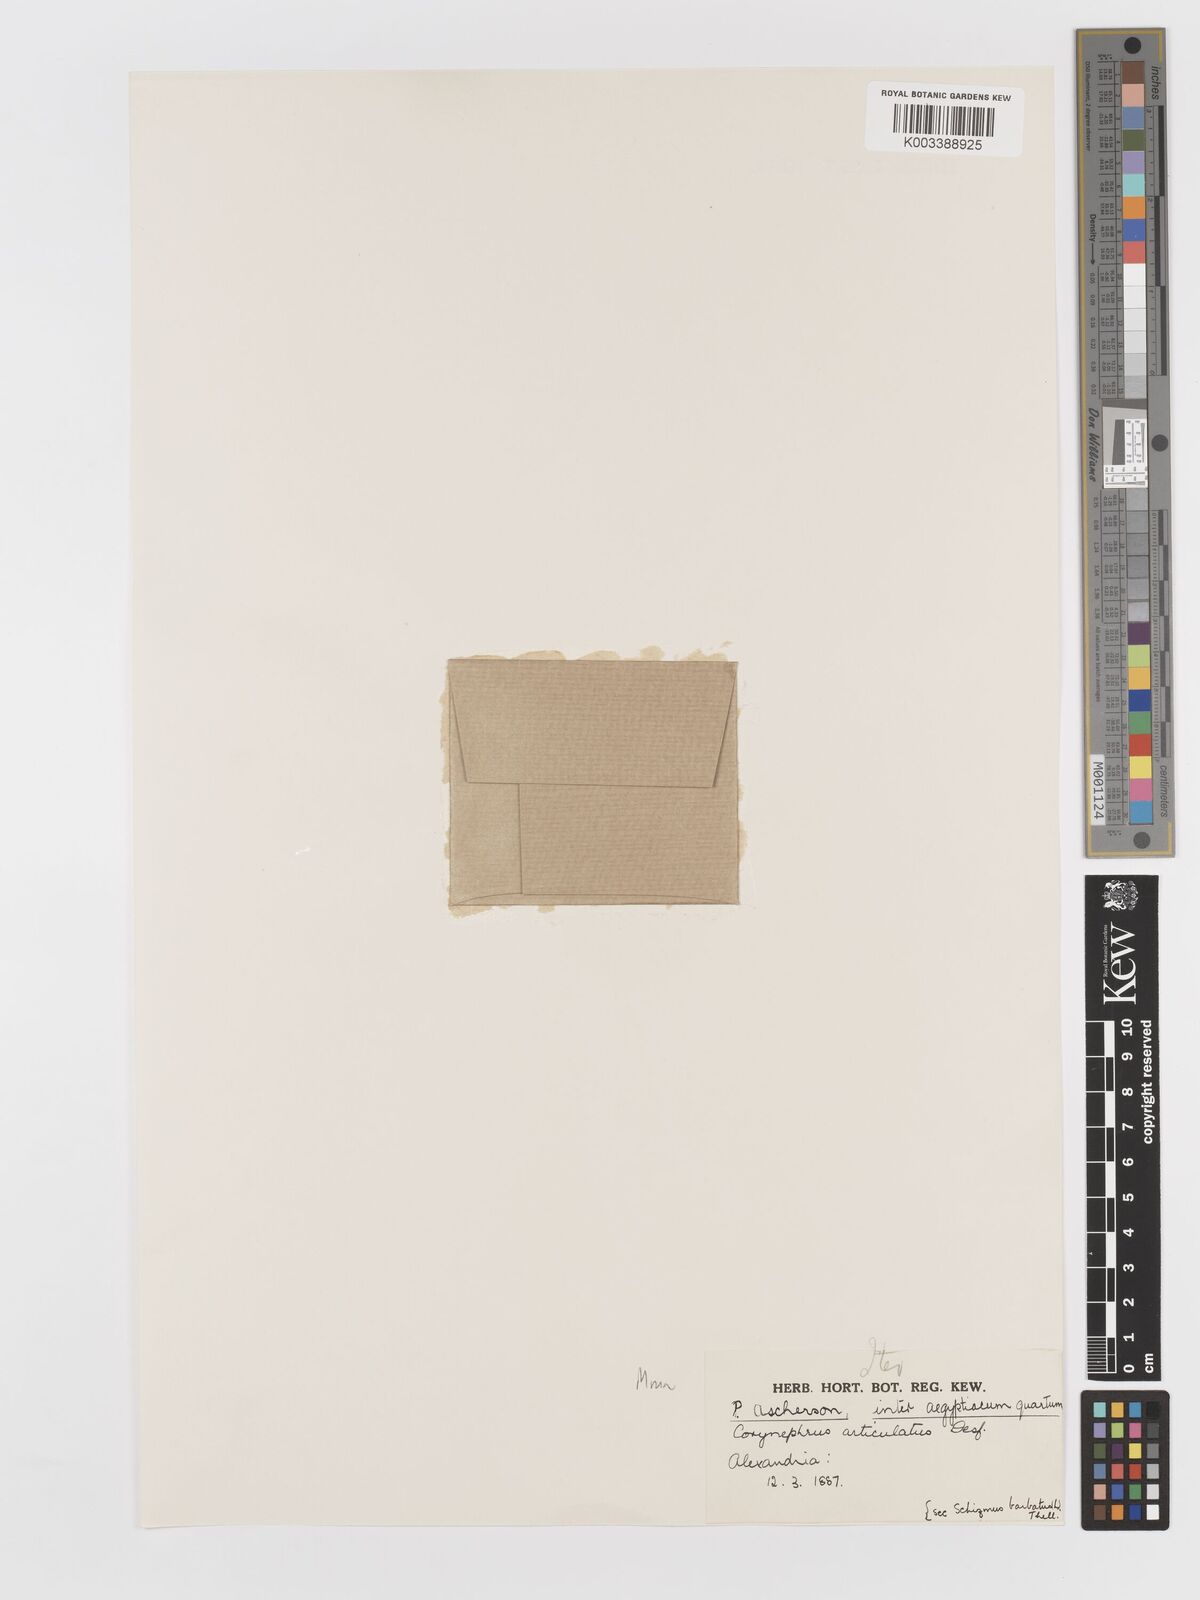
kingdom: Plantae
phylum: Tracheophyta
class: Liliopsida
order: Poales
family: Poaceae
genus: Corynephorus
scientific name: Corynephorus divaricatus
